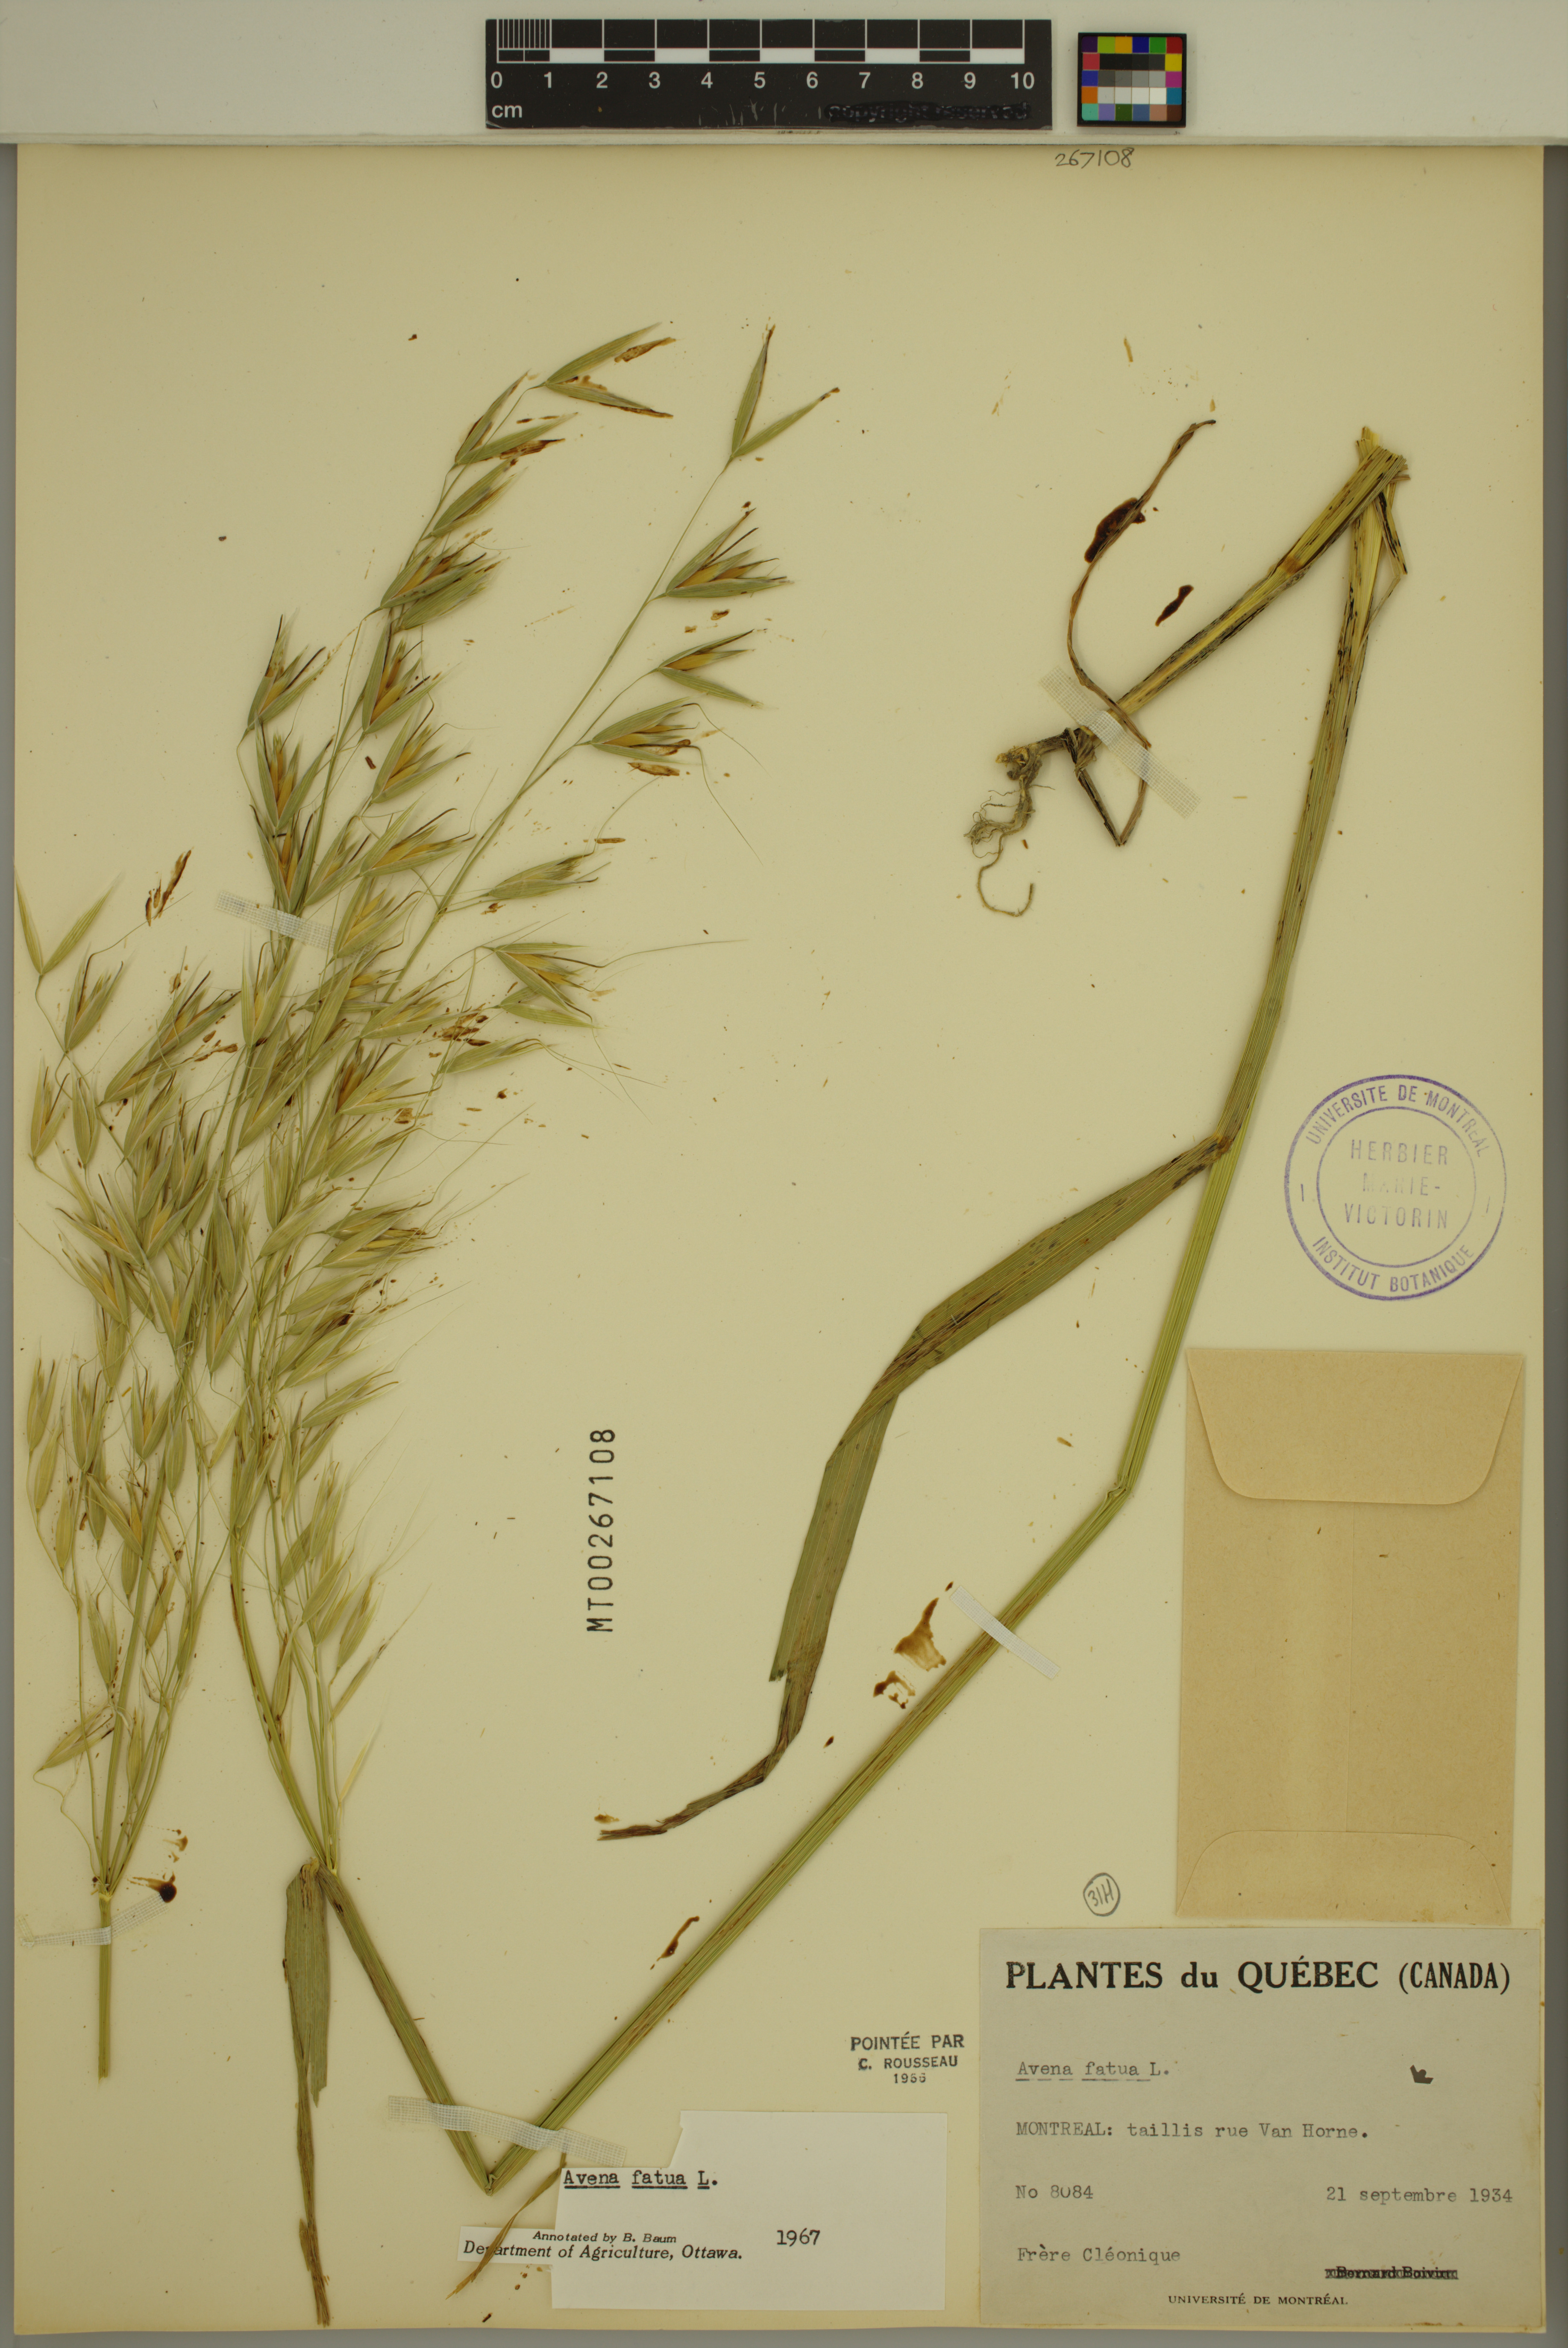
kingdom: Plantae
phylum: Tracheophyta
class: Liliopsida
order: Poales
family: Poaceae
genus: Avena
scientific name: Avena fatua
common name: Wild oat
